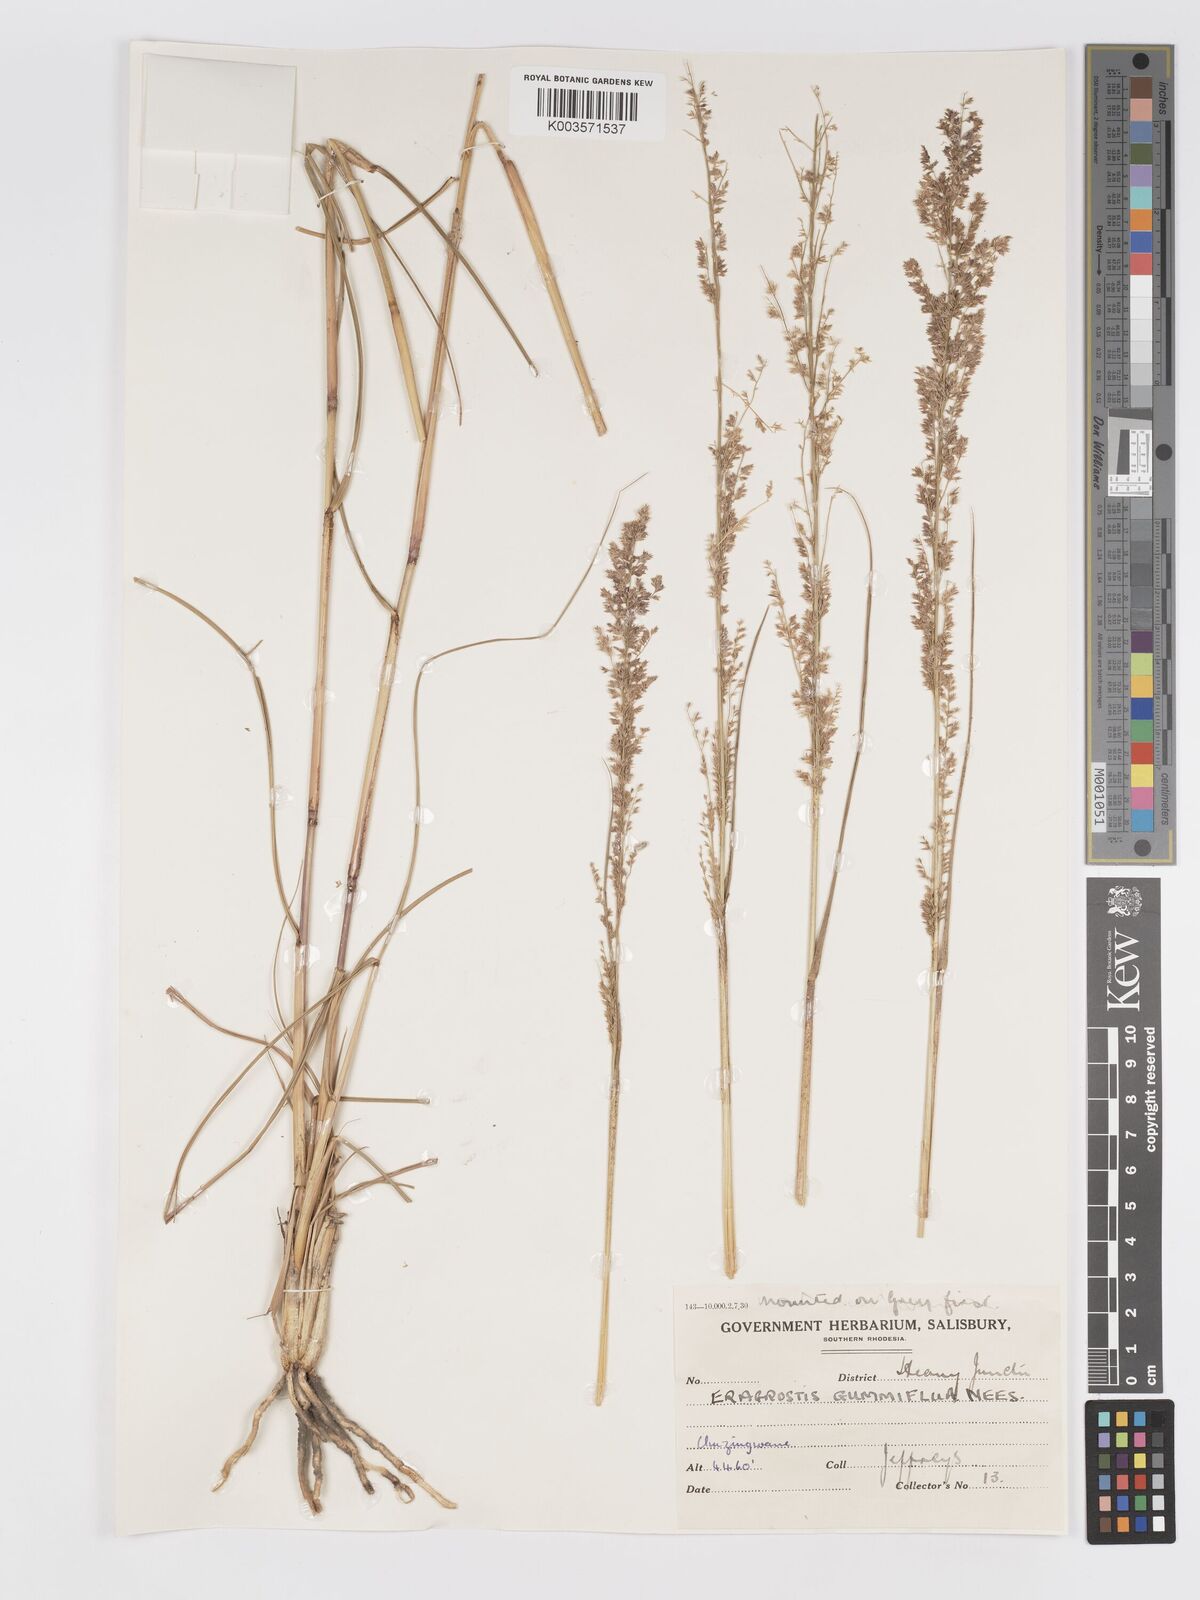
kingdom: Plantae
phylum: Tracheophyta
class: Liliopsida
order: Poales
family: Poaceae
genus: Eragrostis
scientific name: Eragrostis gummiflua
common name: Gum grass
